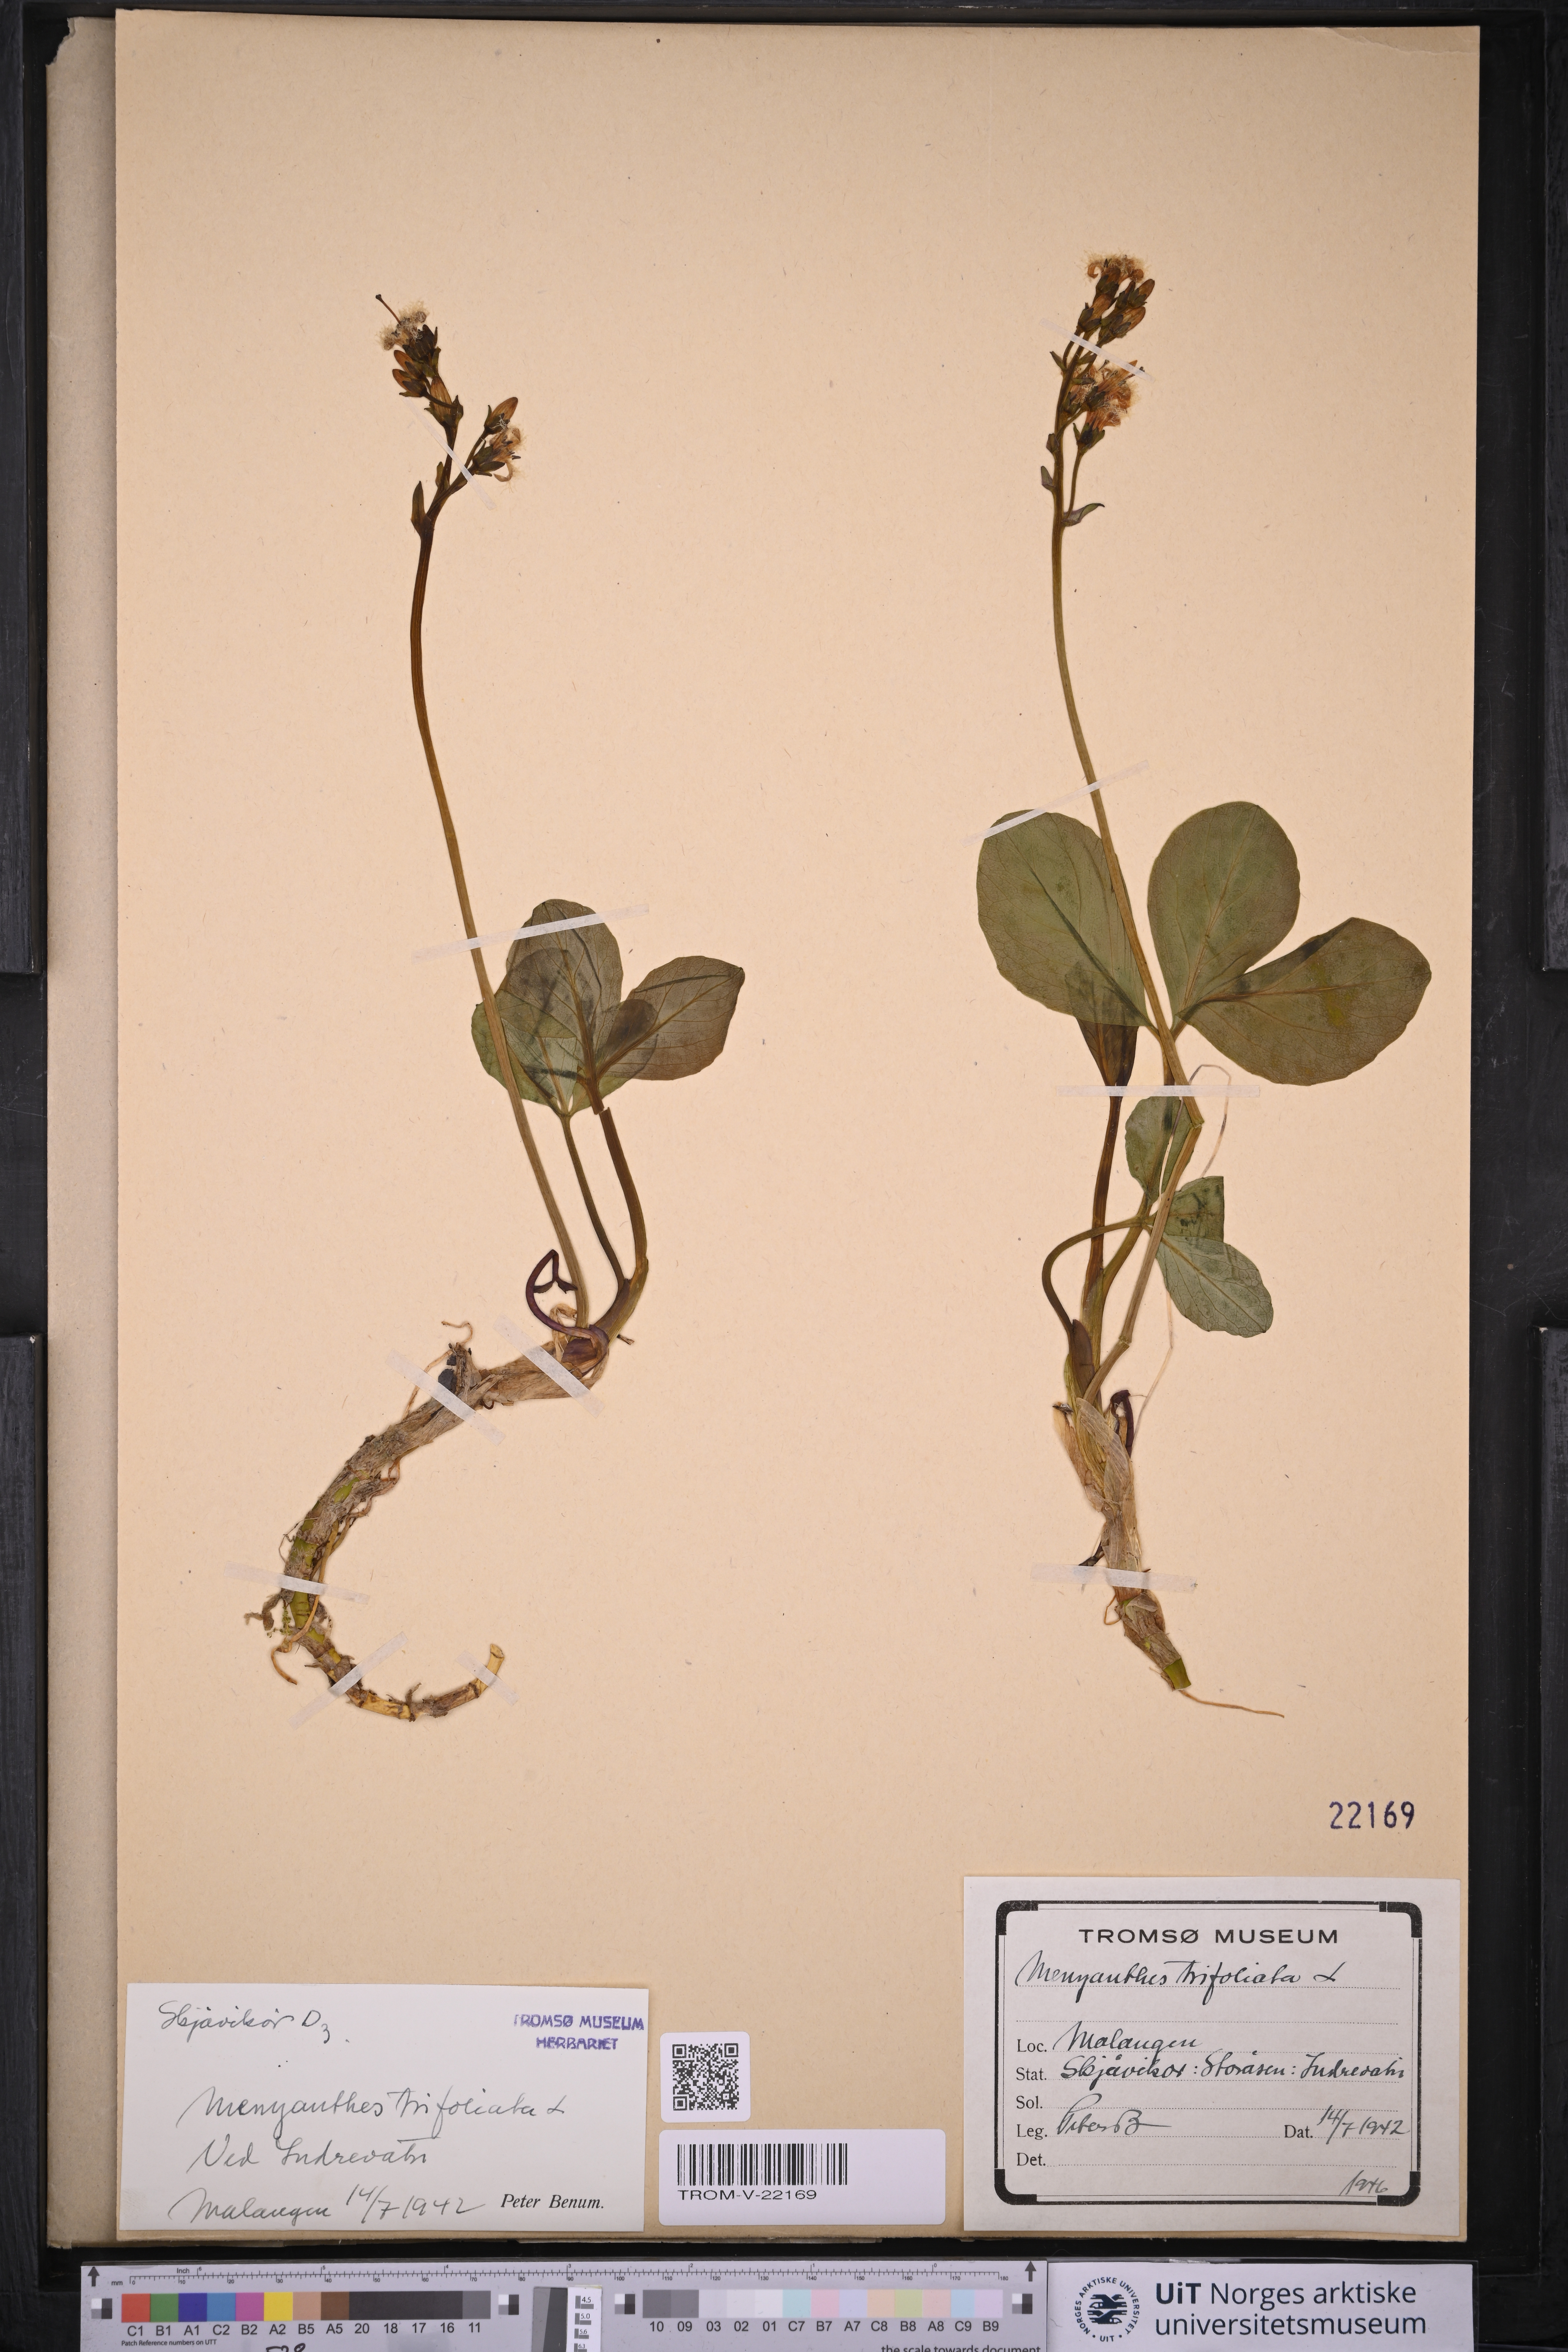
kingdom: Plantae
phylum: Tracheophyta
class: Magnoliopsida
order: Asterales
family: Menyanthaceae
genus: Menyanthes
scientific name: Menyanthes trifoliata
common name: Bogbean
